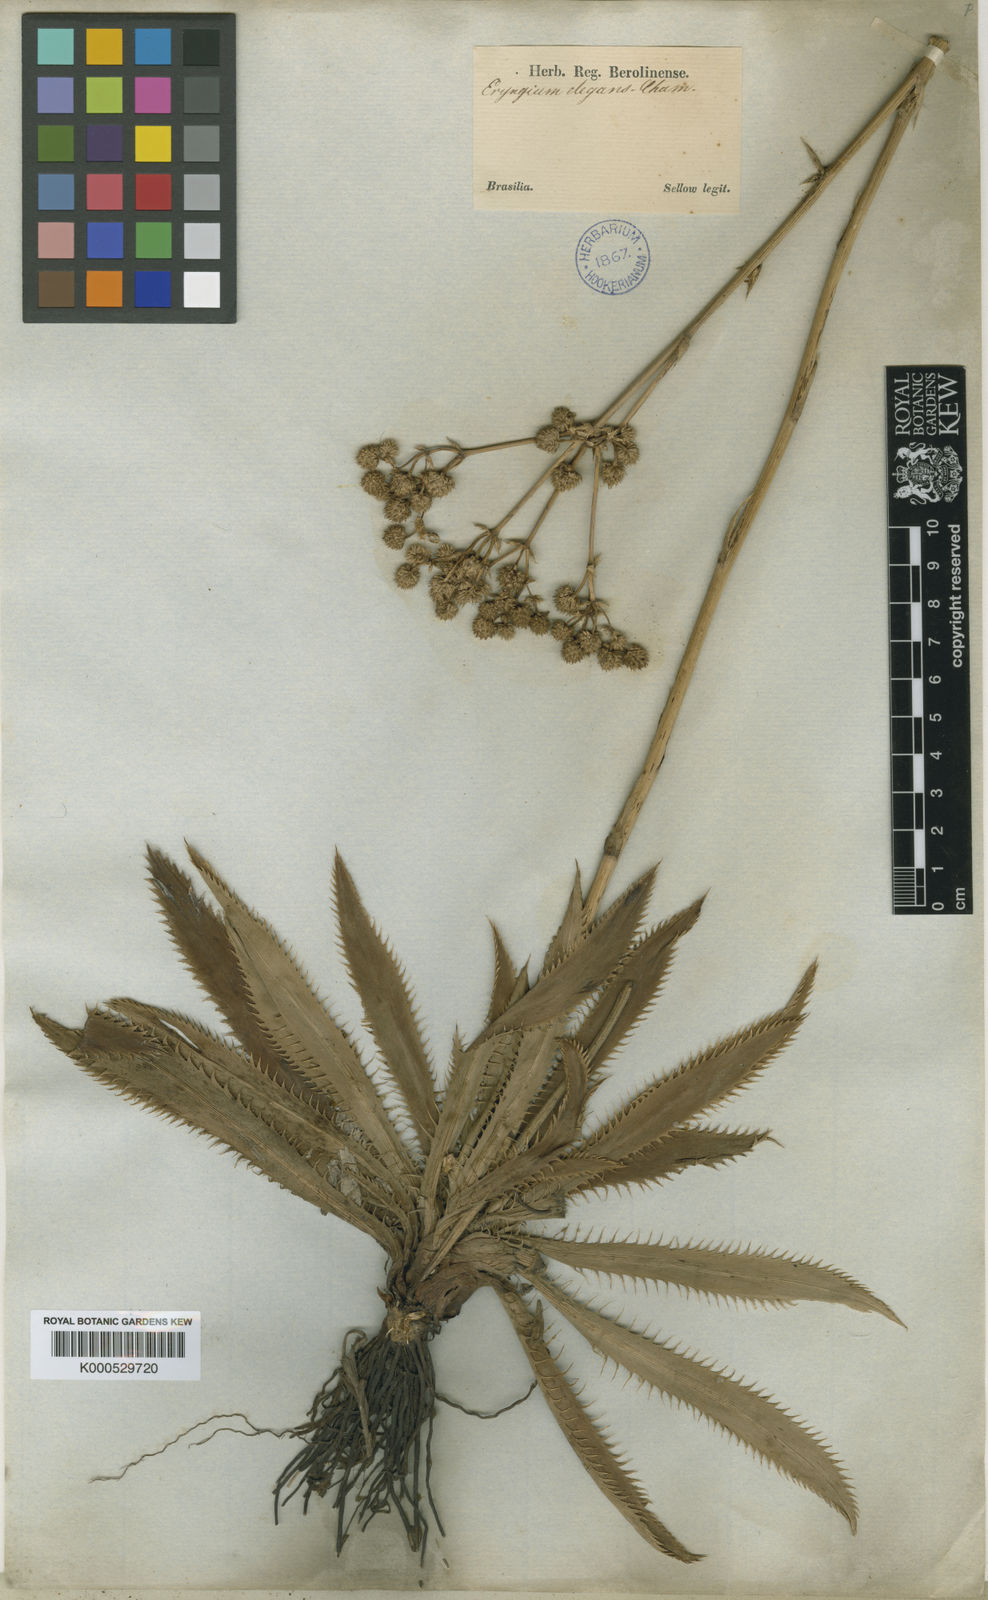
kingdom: Plantae
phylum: Tracheophyta
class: Magnoliopsida
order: Apiales
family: Apiaceae
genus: Eryngium
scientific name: Eryngium elegans
